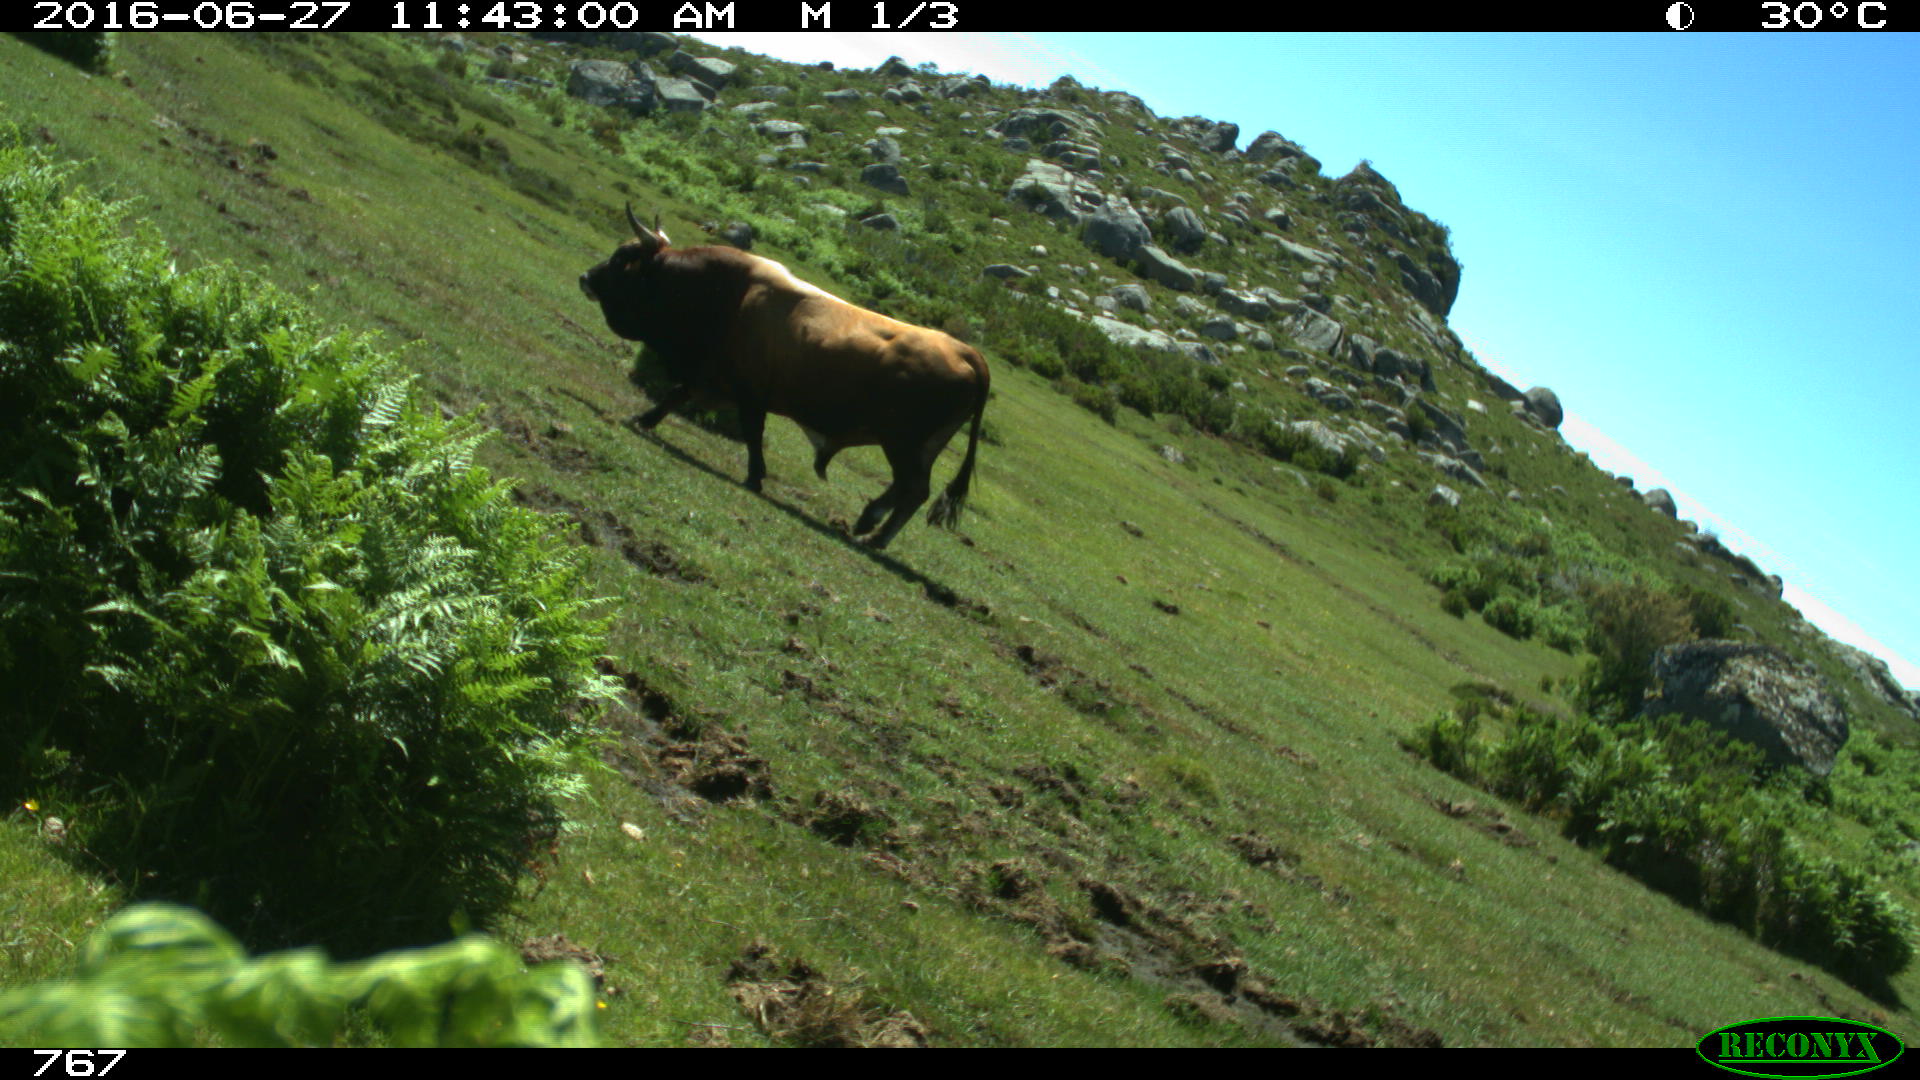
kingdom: Animalia
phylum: Chordata
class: Mammalia
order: Artiodactyla
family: Bovidae
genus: Bos
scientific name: Bos taurus
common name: Domesticated cattle
